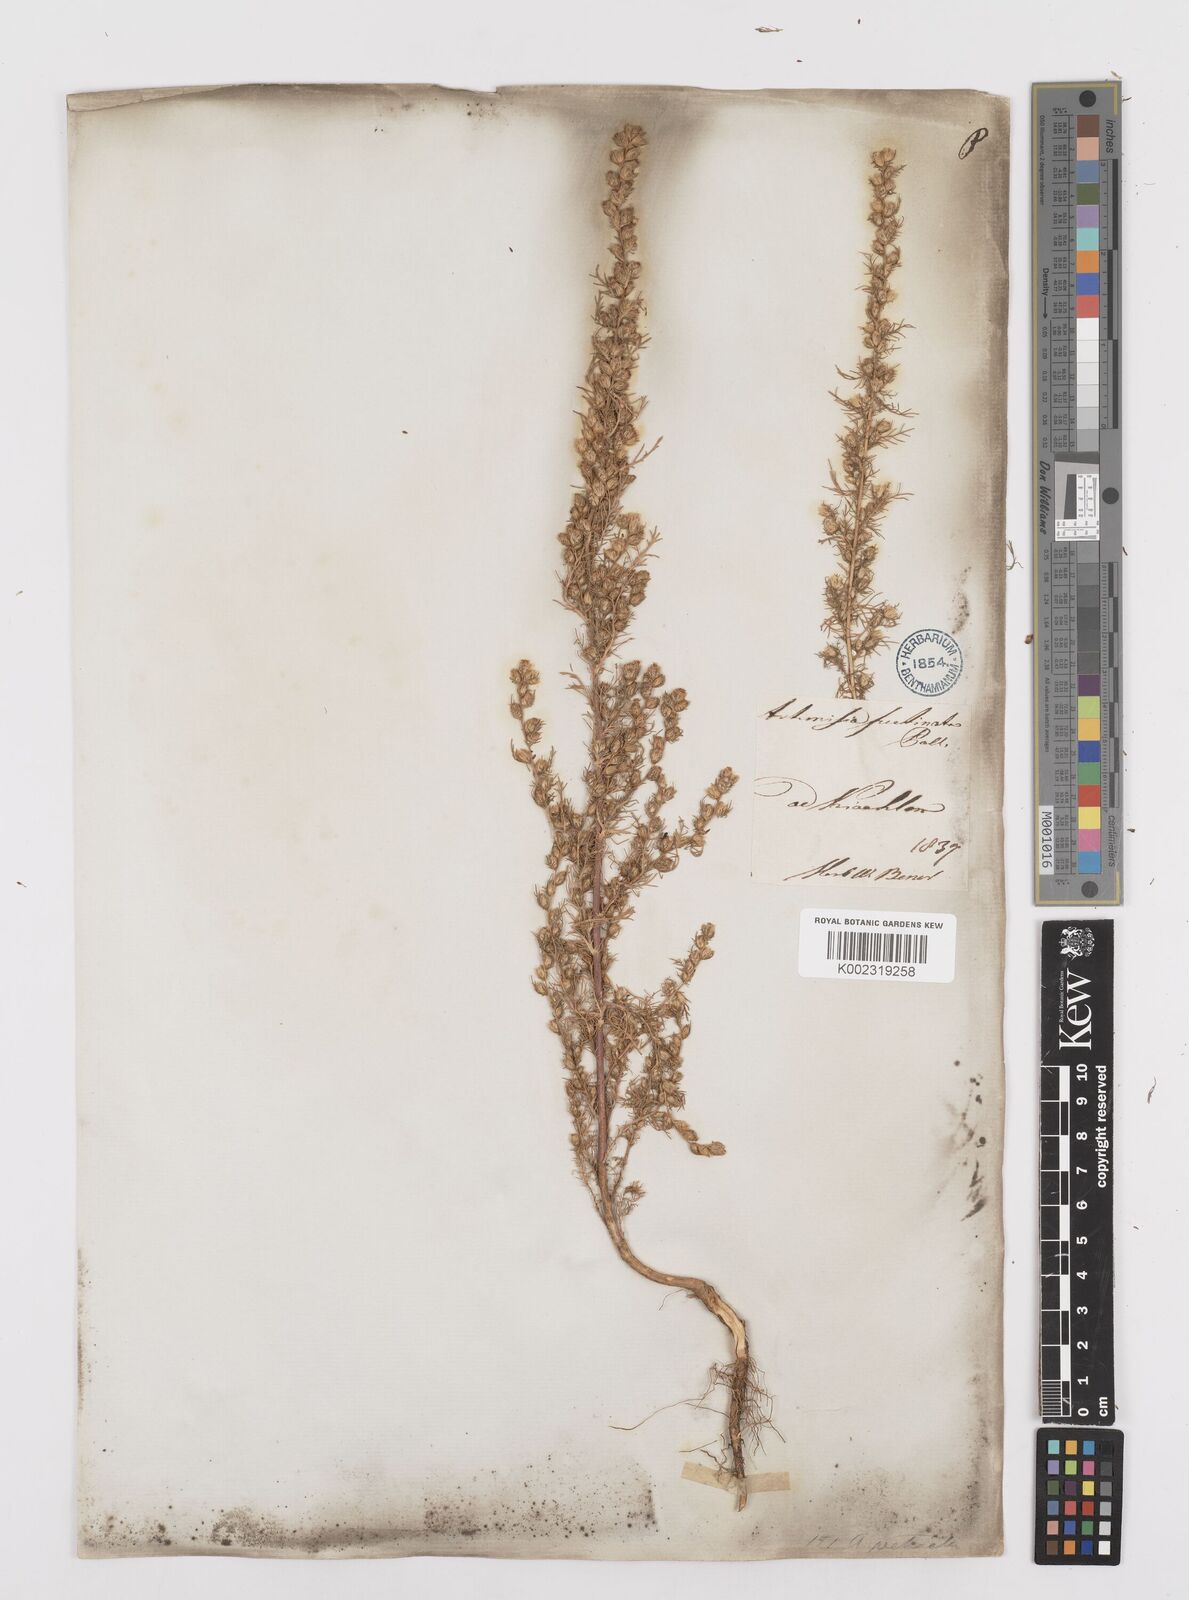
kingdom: Plantae
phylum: Tracheophyta
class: Magnoliopsida
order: Asterales
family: Asteraceae
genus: Neopallasia
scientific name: Neopallasia pectinata
